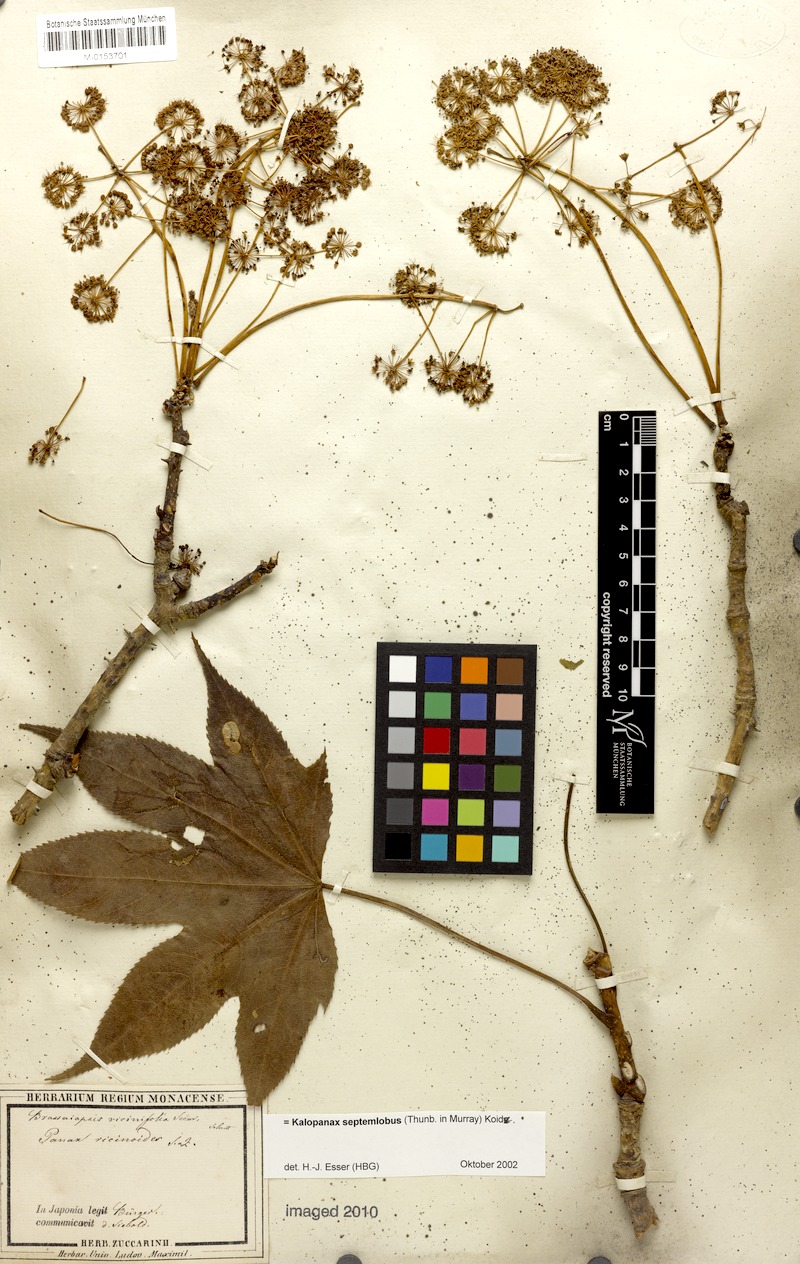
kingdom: Plantae
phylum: Tracheophyta
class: Magnoliopsida
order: Apiales
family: Araliaceae
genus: Kalopanax
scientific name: Kalopanax septemlobus
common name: Castor aralia
